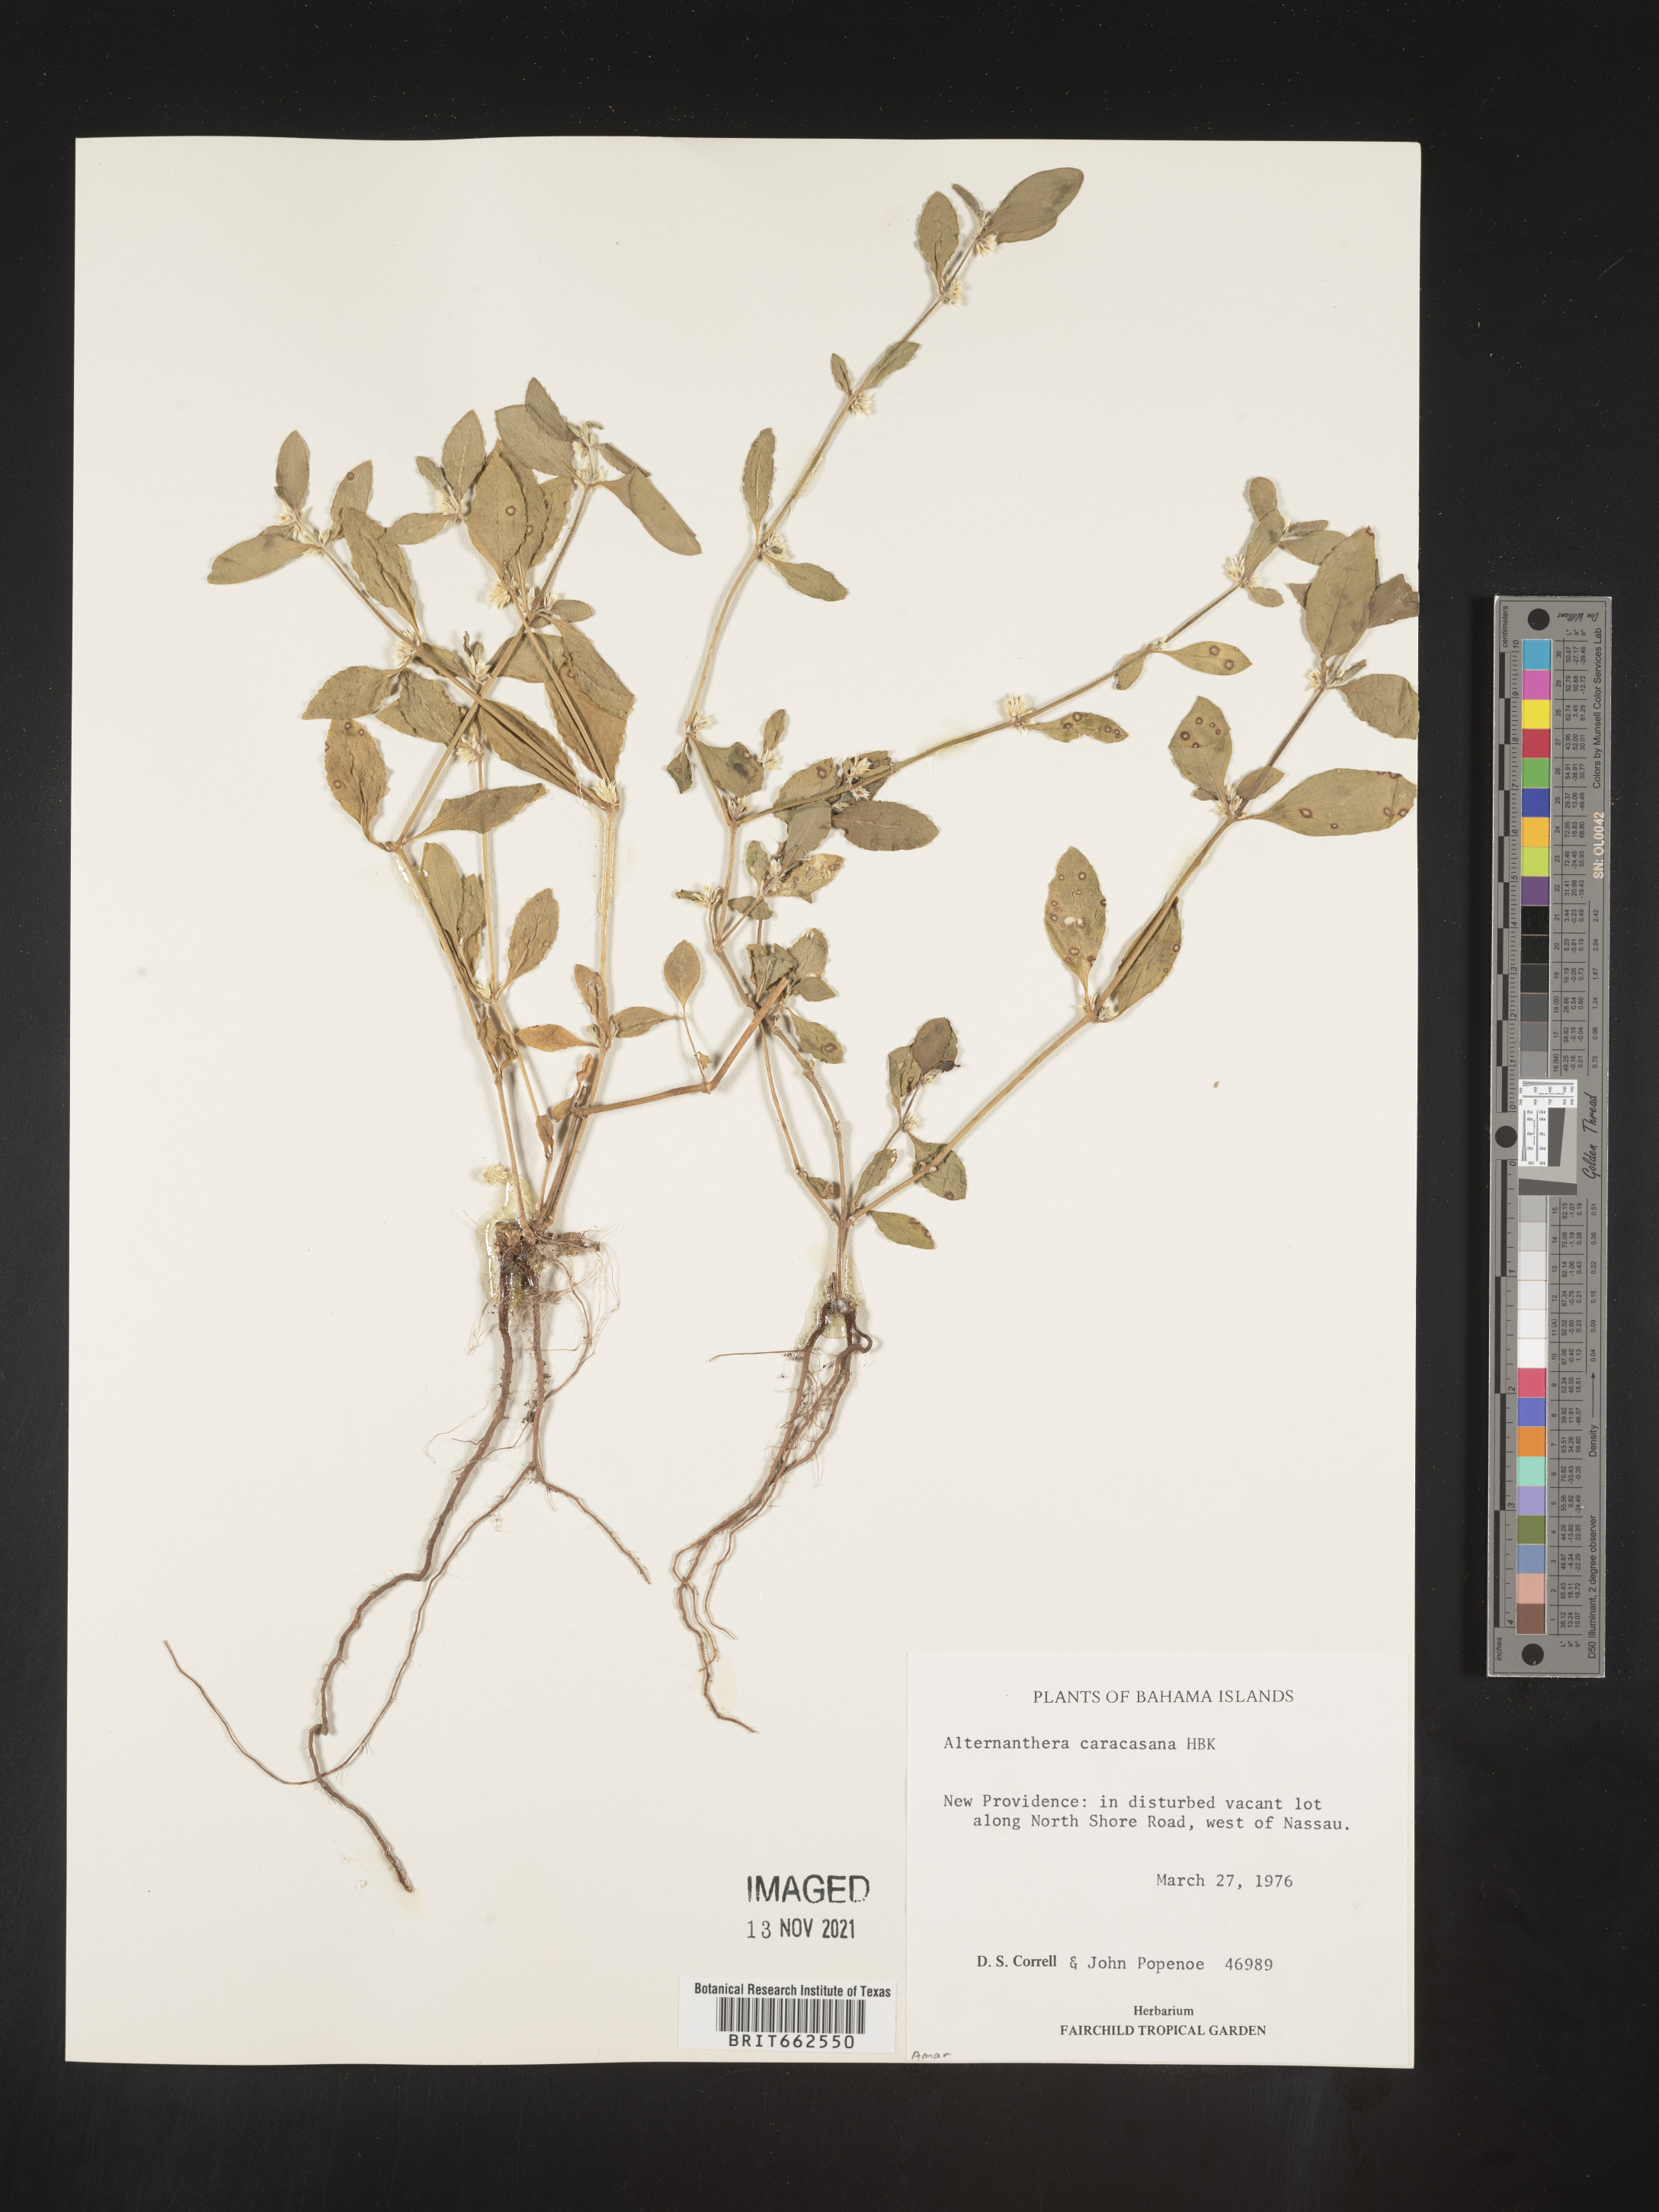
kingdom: Plantae
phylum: Tracheophyta
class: Magnoliopsida
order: Caryophyllales
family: Amaranthaceae
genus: Alternanthera
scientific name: Alternanthera
